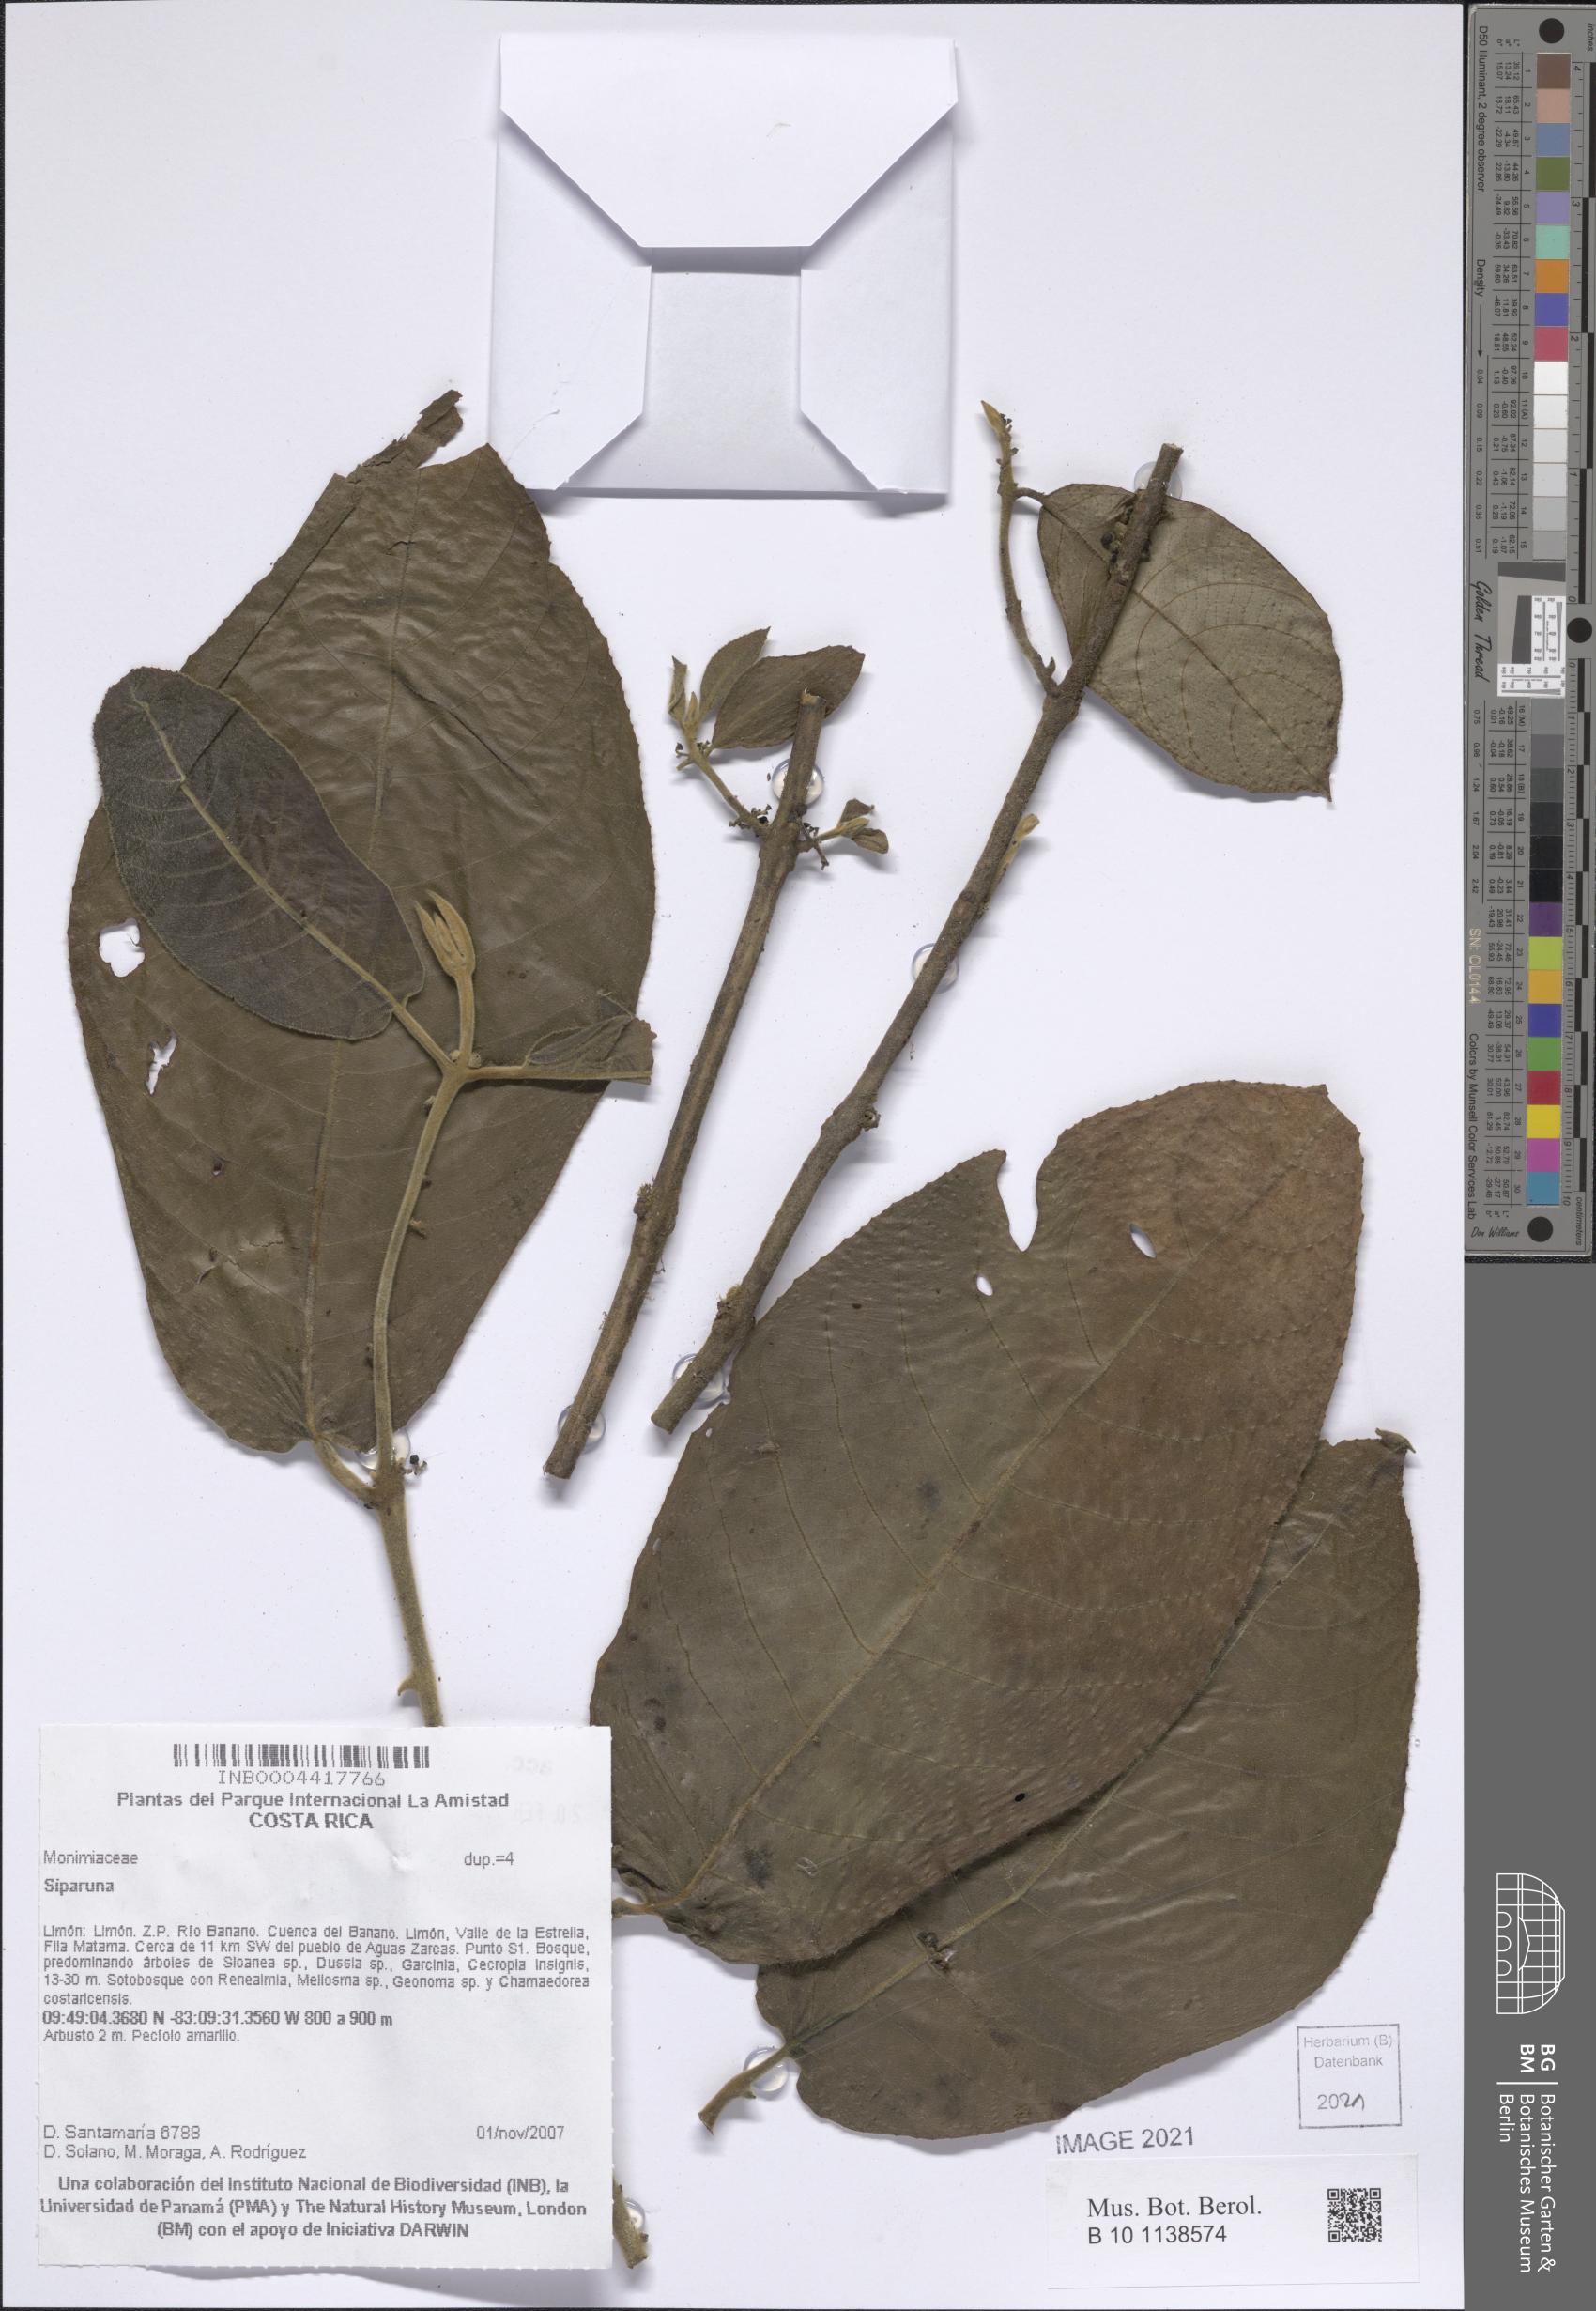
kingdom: Plantae
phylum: Tracheophyta
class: Magnoliopsida
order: Laurales
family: Siparunaceae
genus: Siparuna
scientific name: Siparuna
